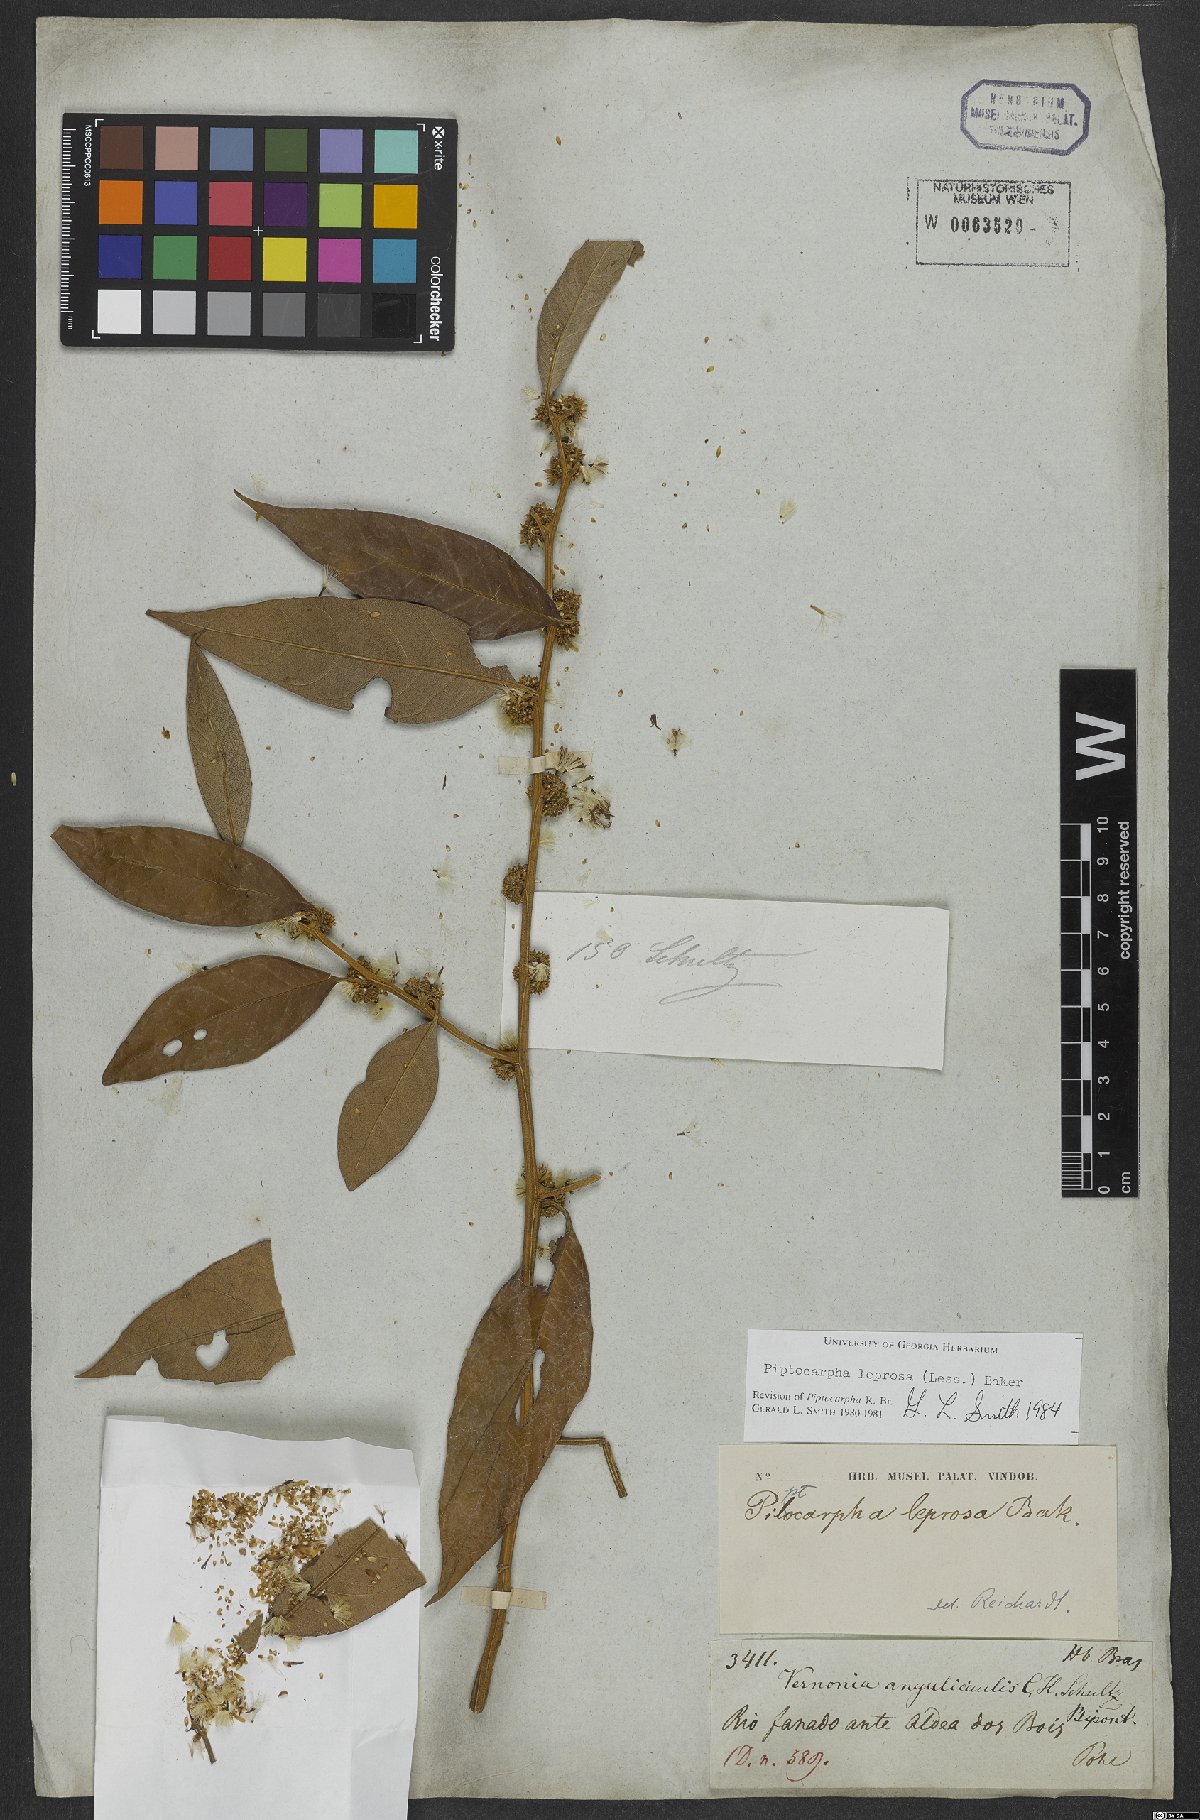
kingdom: Plantae
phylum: Tracheophyta
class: Magnoliopsida
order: Asterales
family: Asteraceae
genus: Piptocarpha
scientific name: Piptocarpha leprosa
